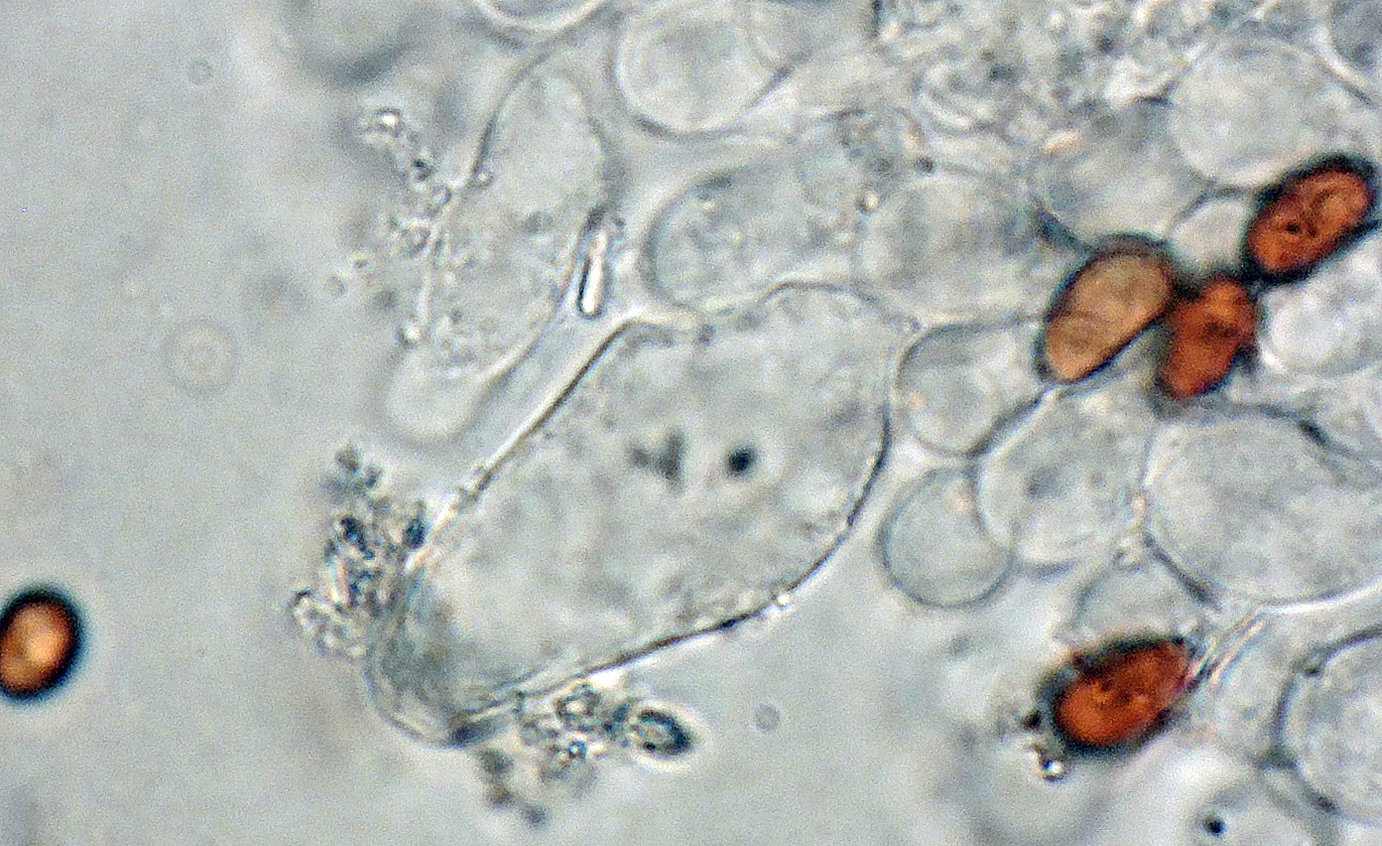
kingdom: Fungi
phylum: Basidiomycota
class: Agaricomycetes
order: Agaricales
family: Psathyrellaceae
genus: Psathyrella
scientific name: Psathyrella spadiceogrisea
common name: gråbrun mørkhat
